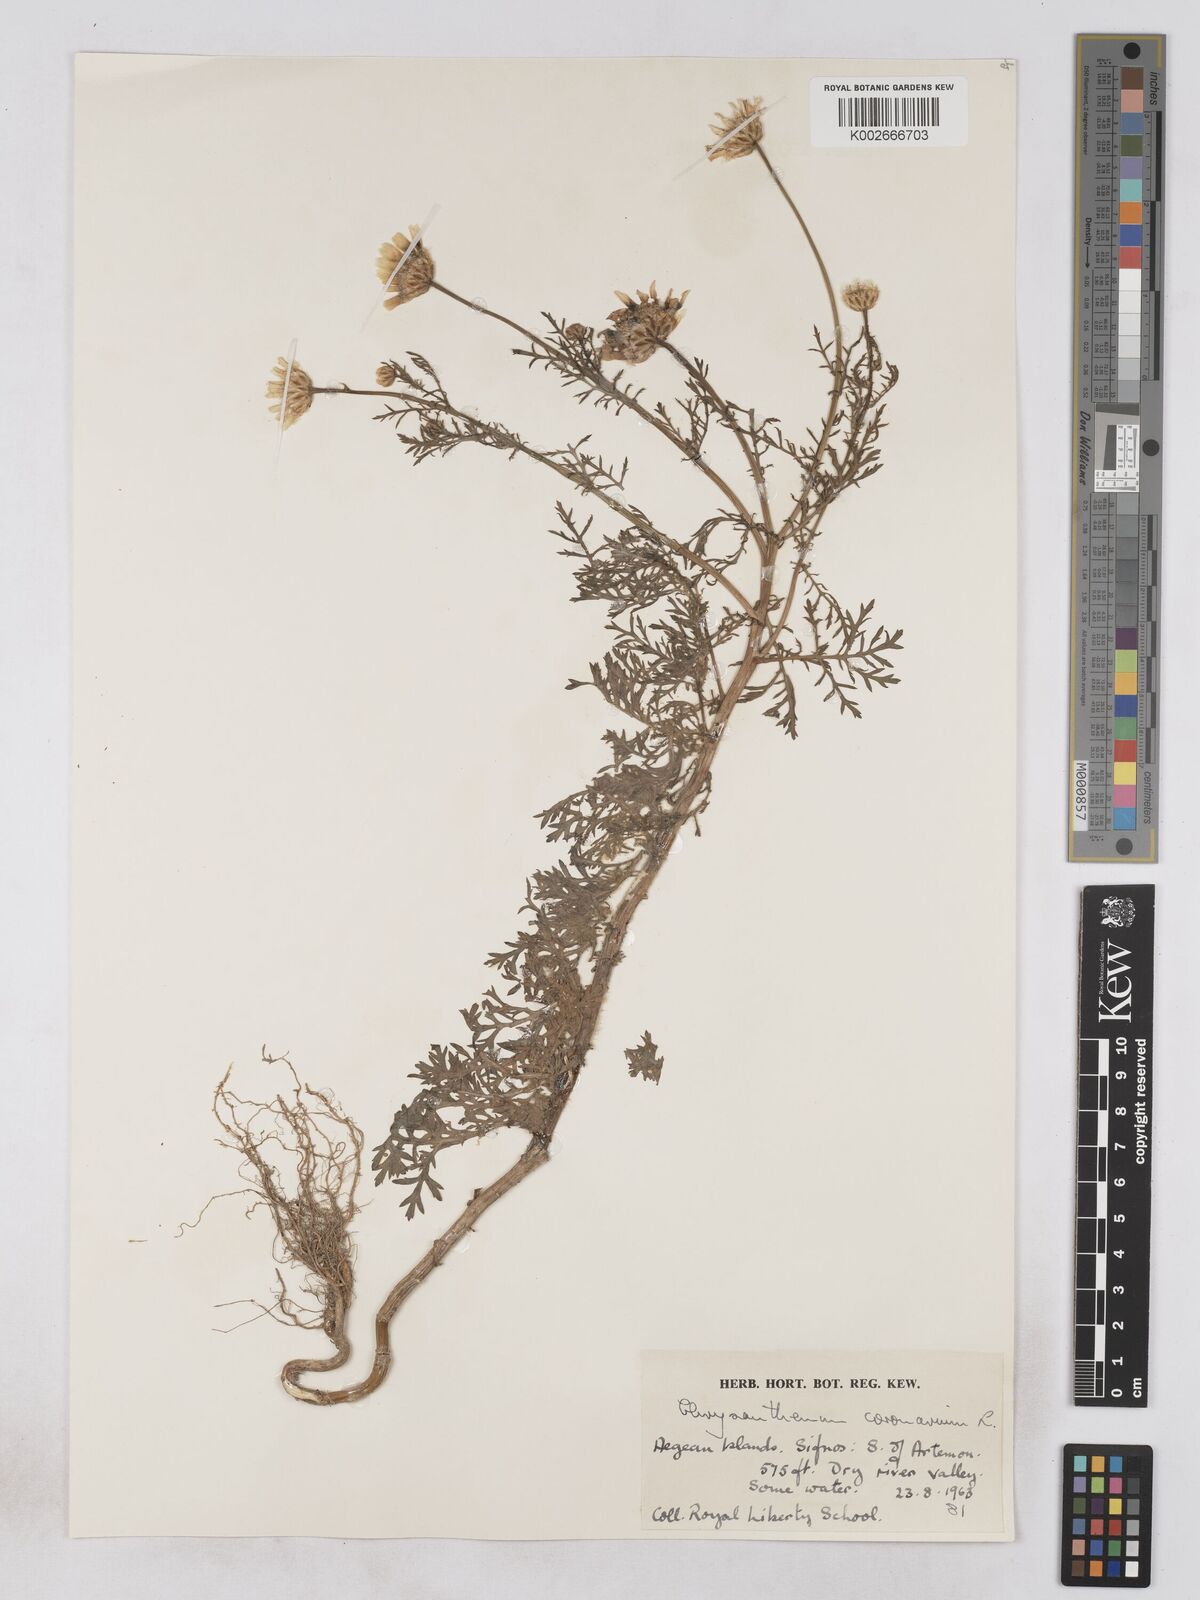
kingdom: Plantae
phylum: Tracheophyta
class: Magnoliopsida
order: Asterales
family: Asteraceae
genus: Glebionis
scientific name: Glebionis coronaria
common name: Crowndaisy
